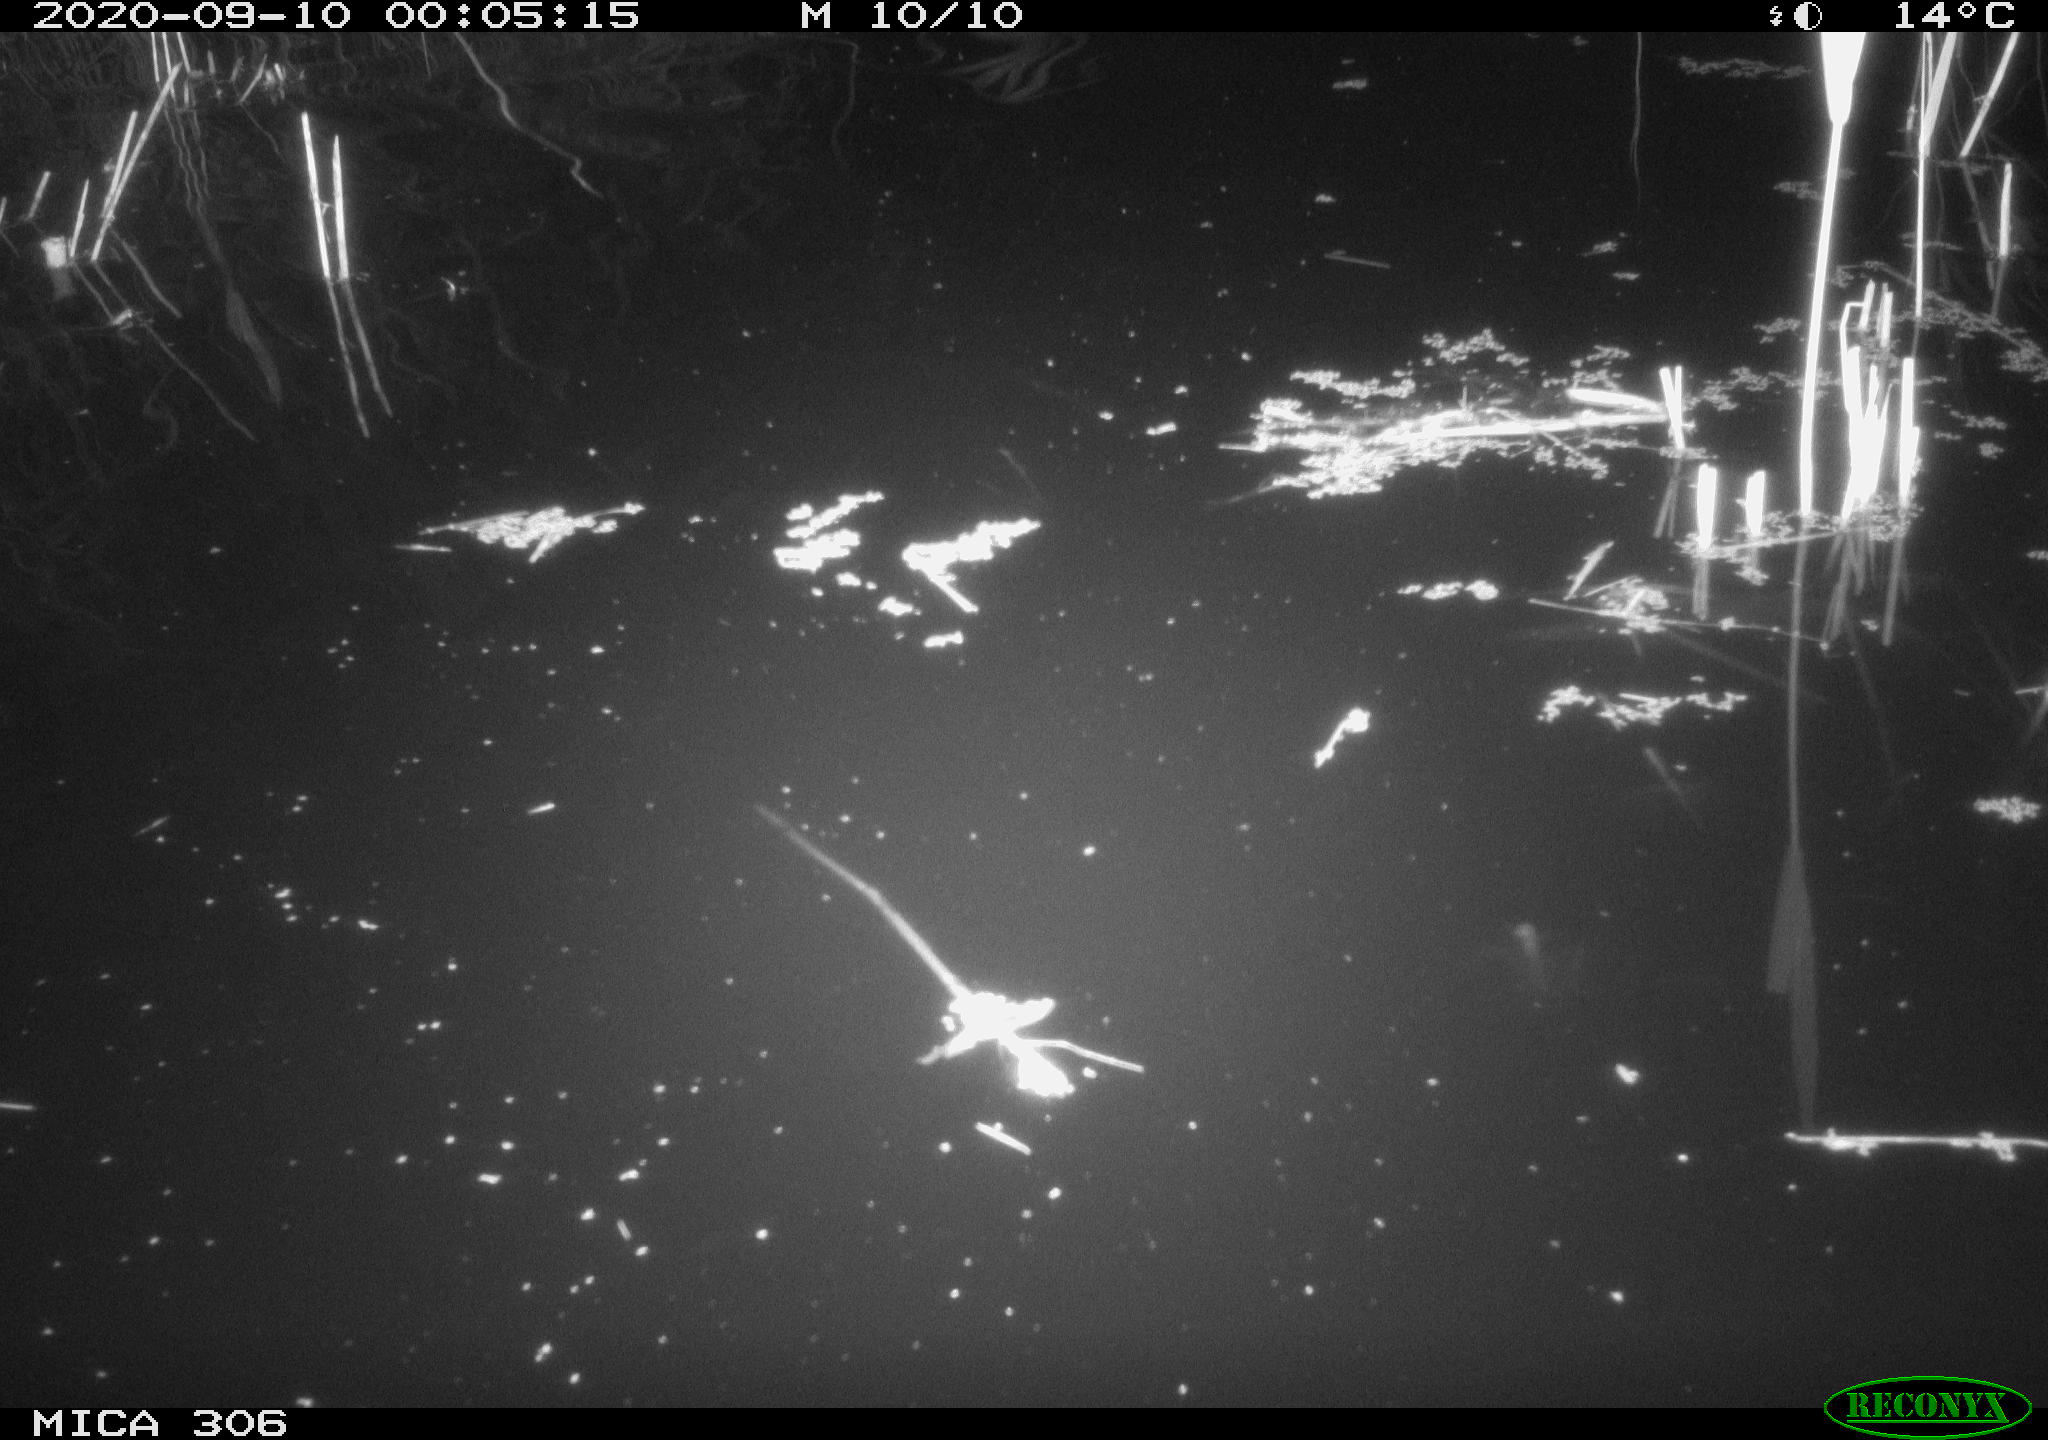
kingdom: Animalia
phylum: Chordata
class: Mammalia
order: Rodentia
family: Muridae
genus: Rattus
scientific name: Rattus norvegicus
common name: Brown rat
